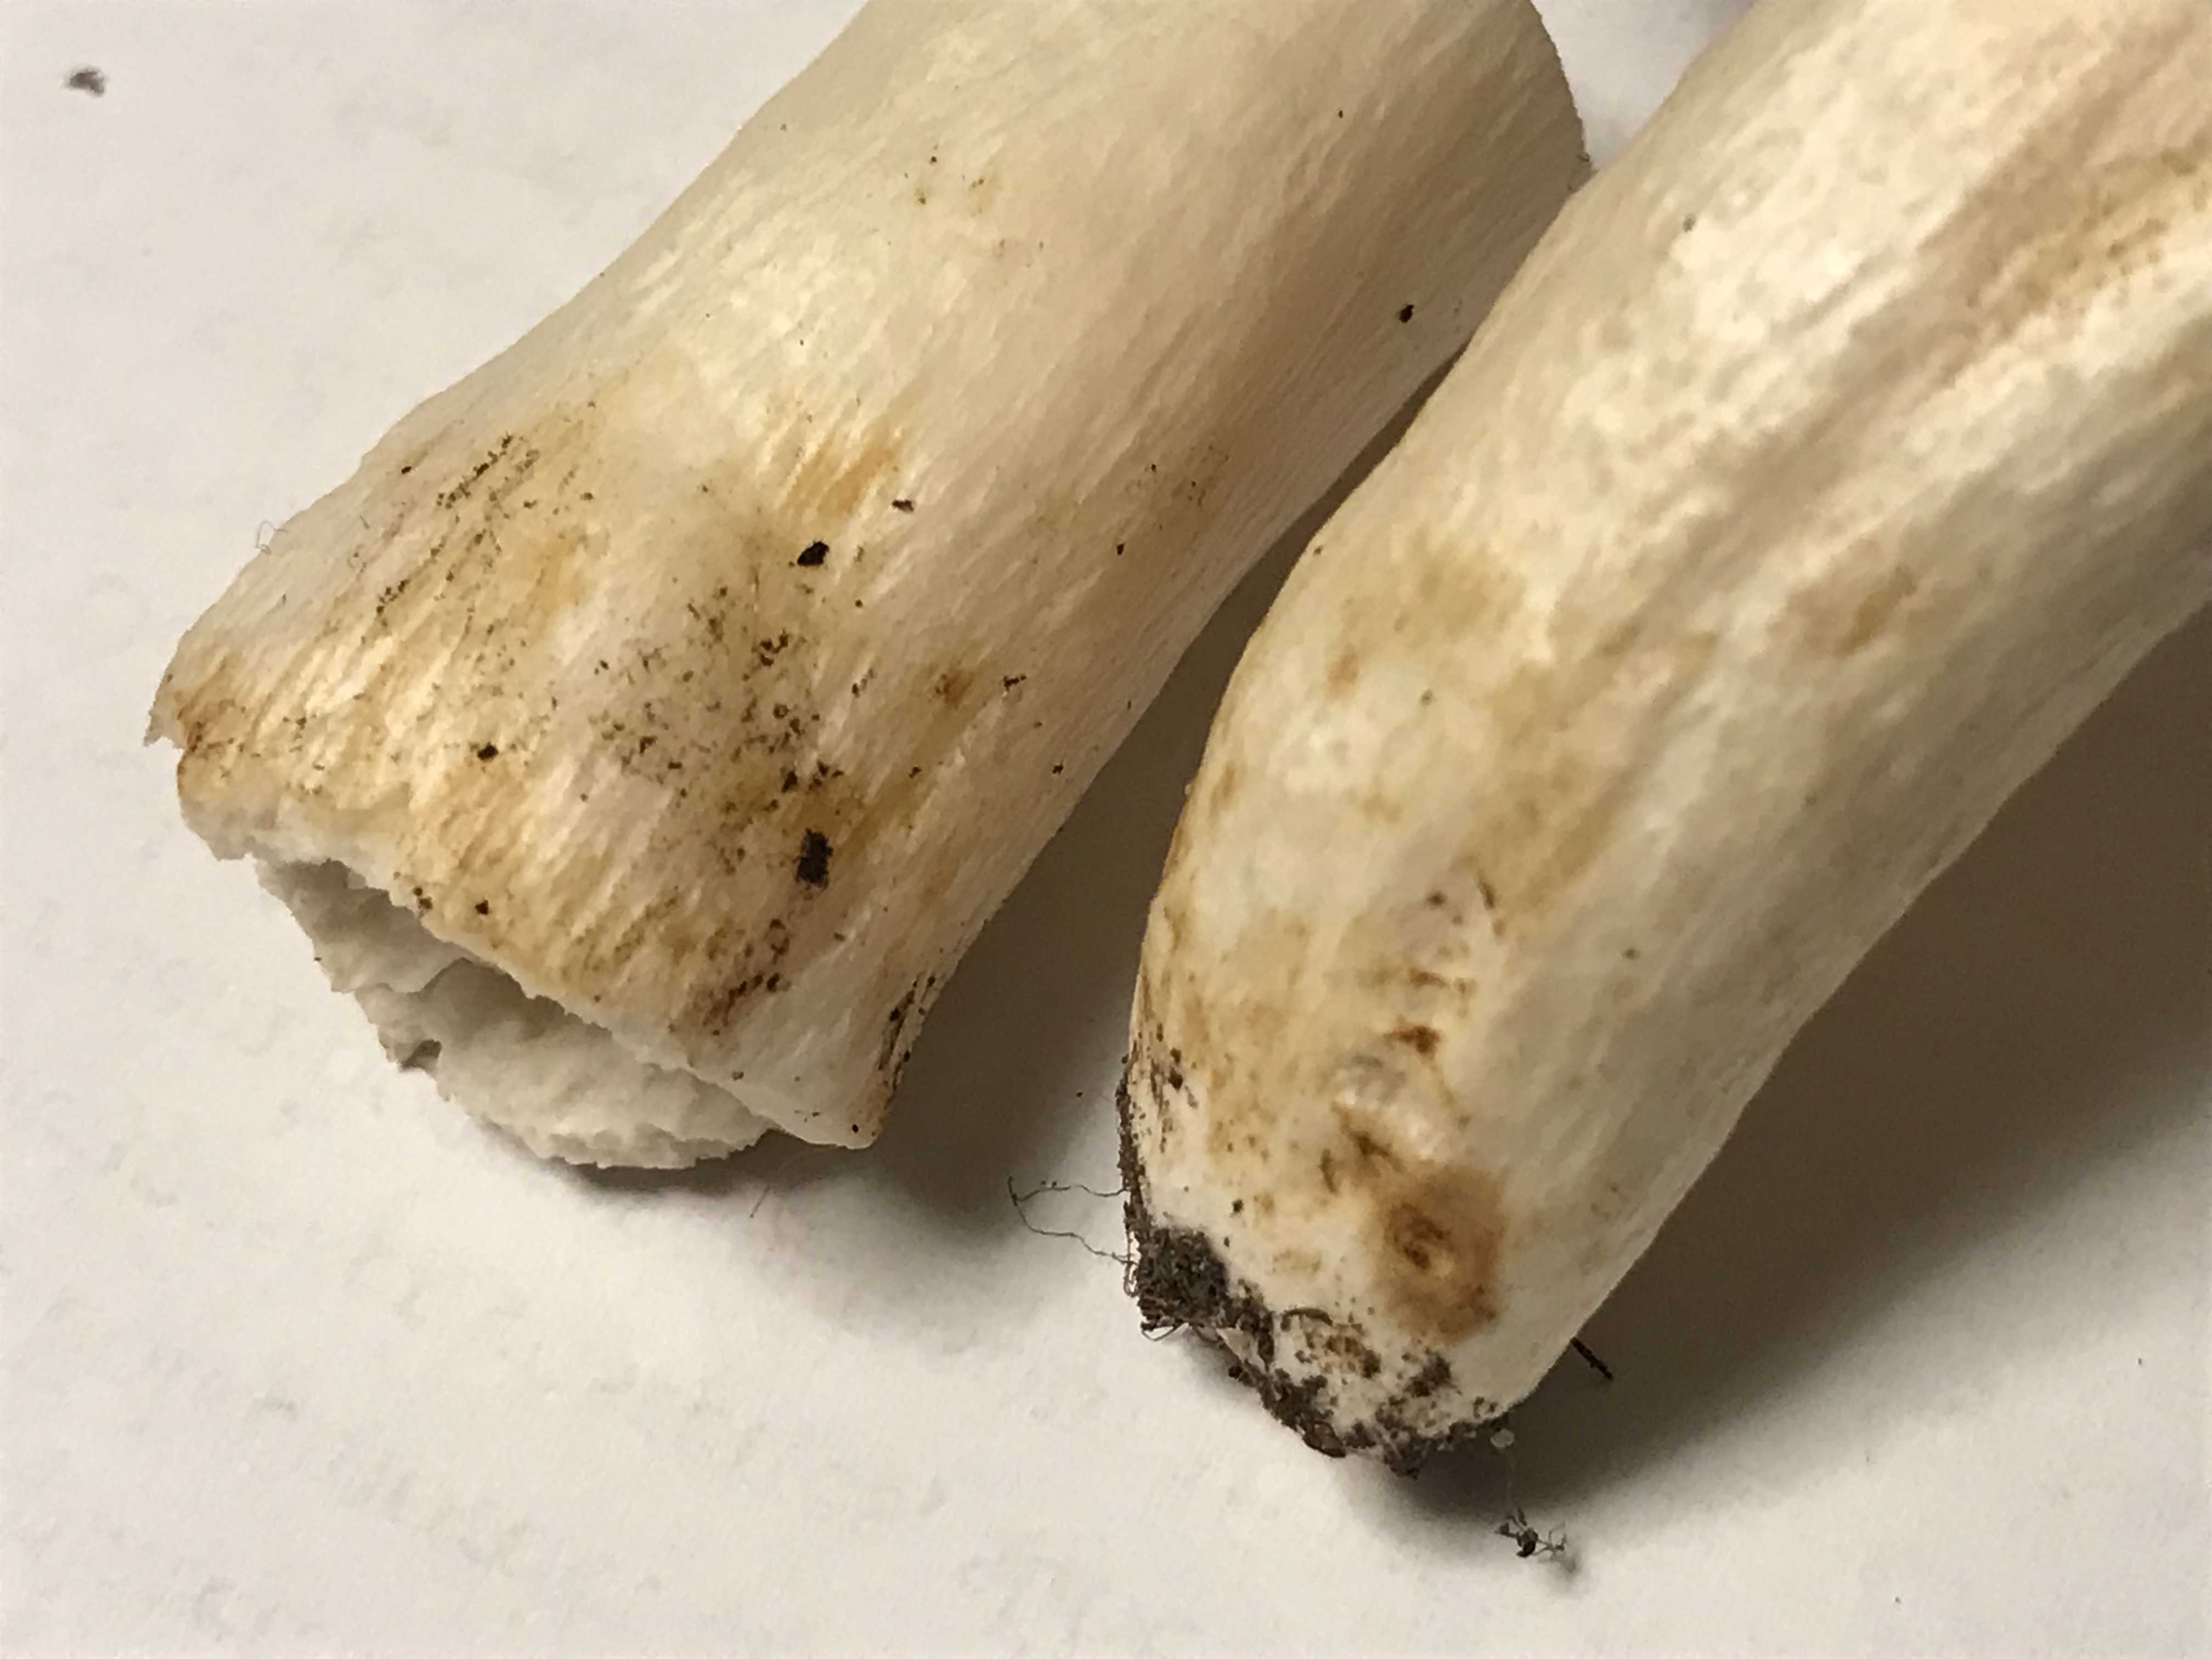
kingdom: Fungi
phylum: Basidiomycota
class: Agaricomycetes
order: Russulales
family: Russulaceae
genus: Russula
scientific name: Russula atropurpurea
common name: purpurbroget skørhat
